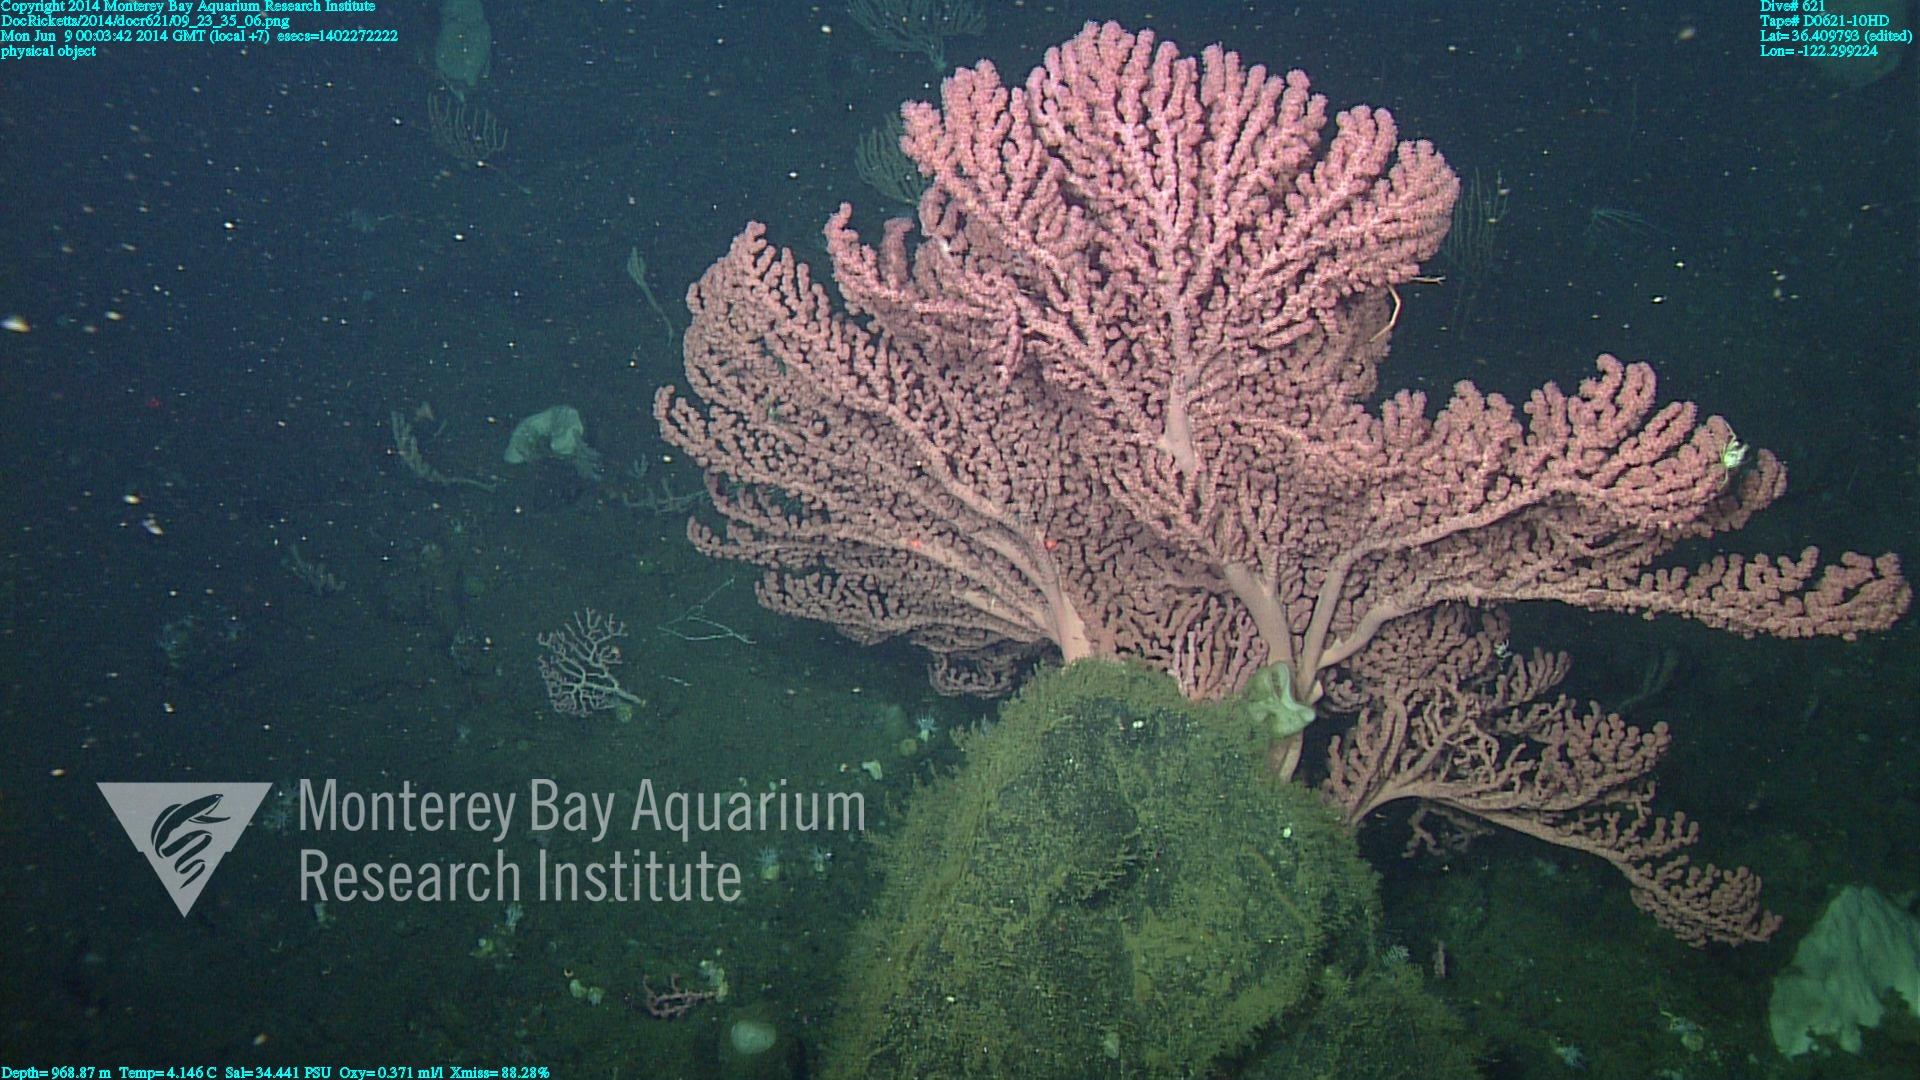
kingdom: Animalia
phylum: Cnidaria
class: Anthozoa
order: Scleralcyonacea
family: Coralliidae
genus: Paragorgia
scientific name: Paragorgia arborea
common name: Bubble gum coral
